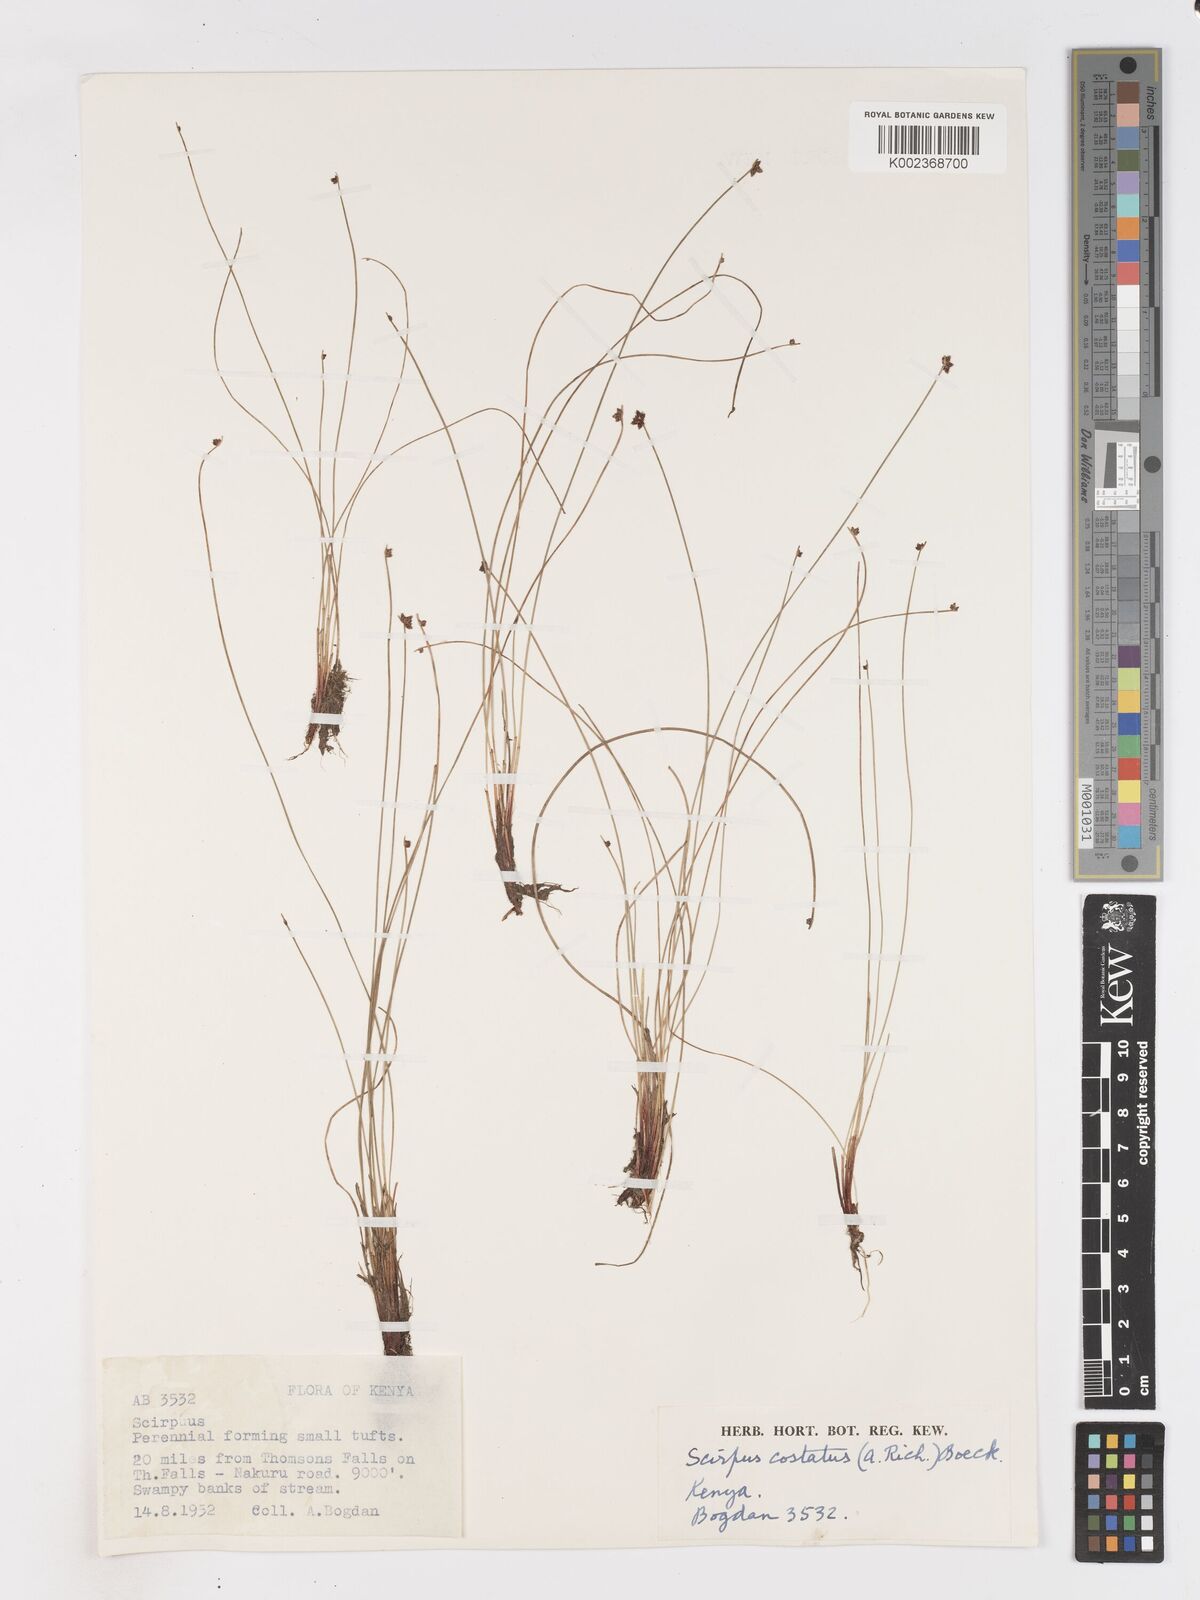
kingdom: Plantae
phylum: Tracheophyta
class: Liliopsida
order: Poales
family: Cyperaceae
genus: Isolepis
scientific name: Isolepis costata
